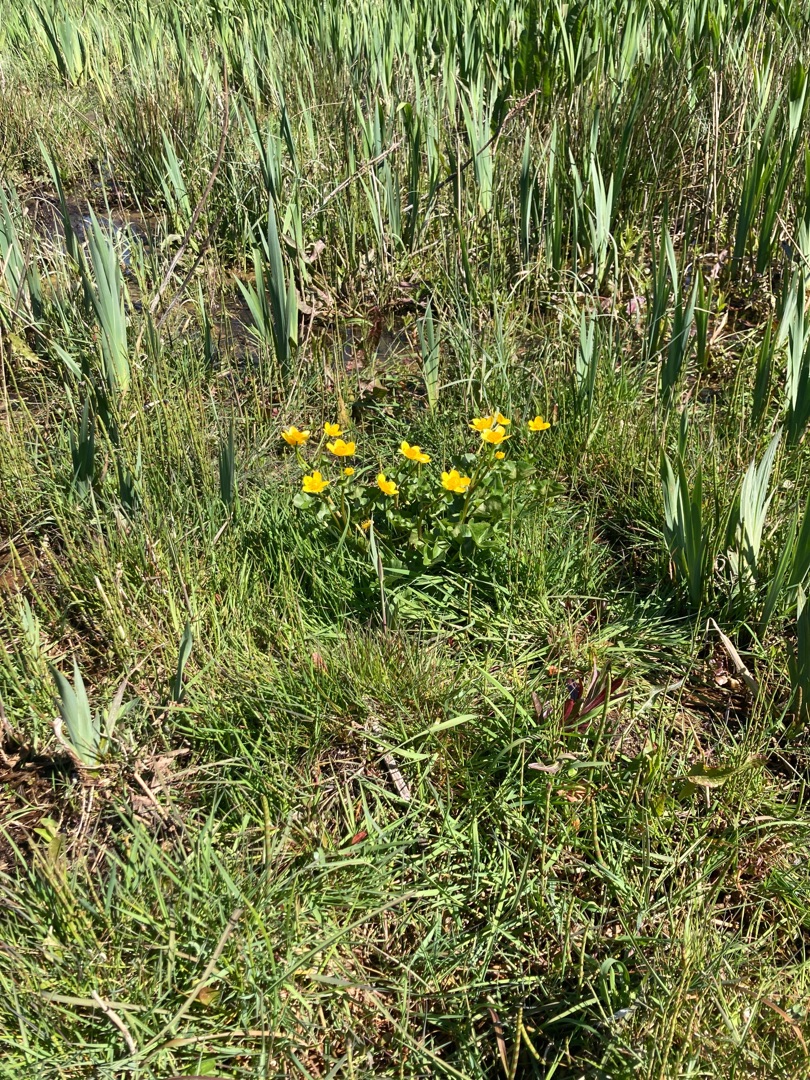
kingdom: Plantae
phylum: Tracheophyta
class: Magnoliopsida
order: Ranunculales
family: Ranunculaceae
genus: Caltha
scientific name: Caltha palustris
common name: Eng-kabbeleje
